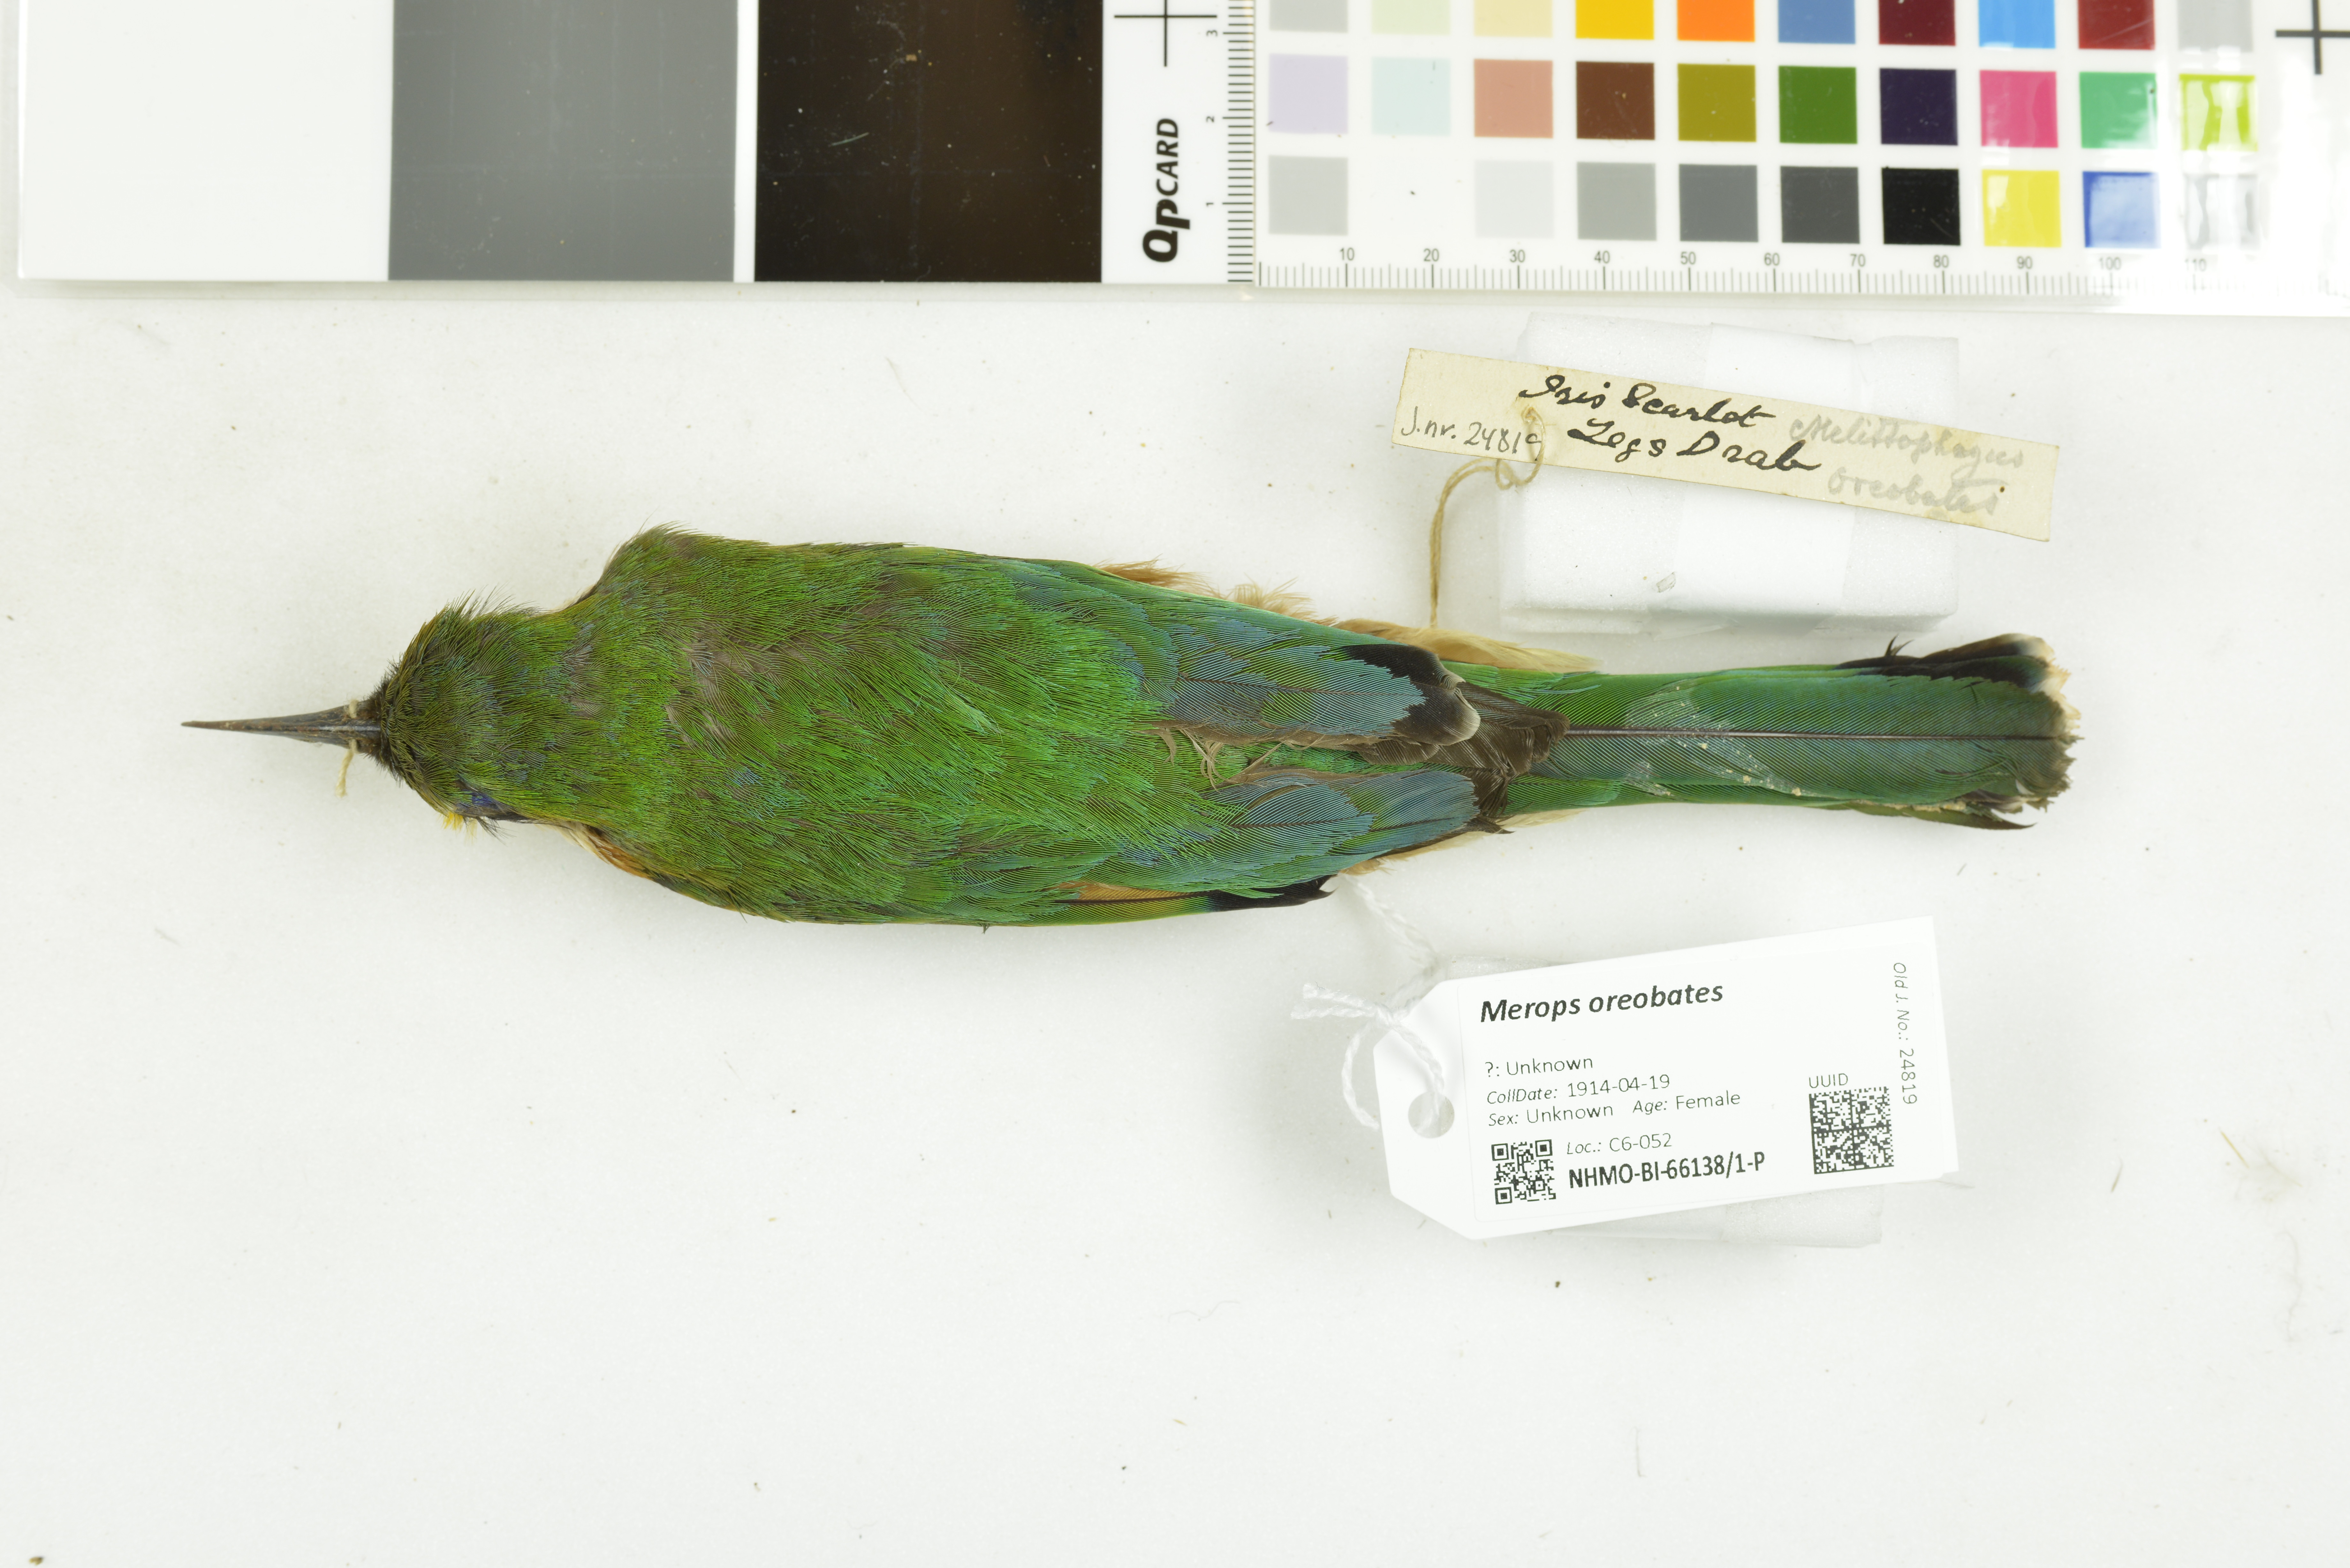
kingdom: Animalia
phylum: Chordata
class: Aves
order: Coraciiformes
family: Meropidae
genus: Merops
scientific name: Merops oreobates
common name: Cinnamon-chested bee-eater
